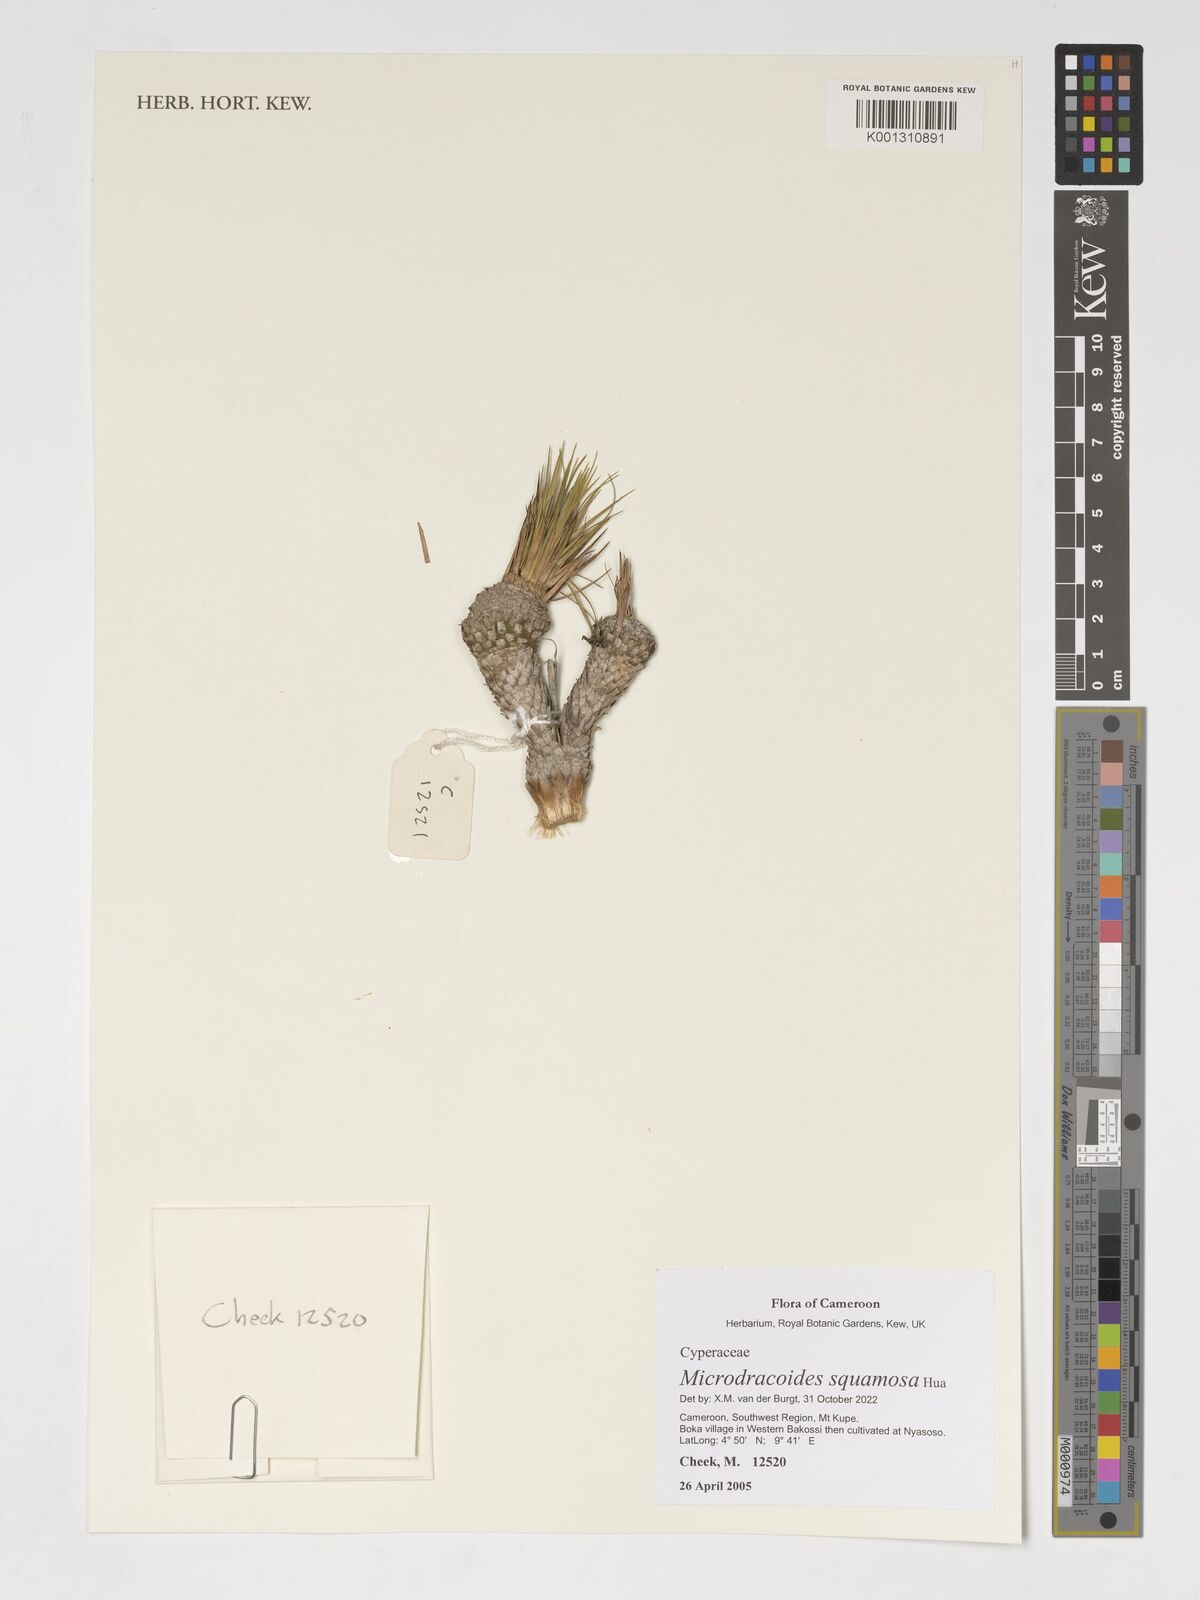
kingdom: Plantae
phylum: Tracheophyta
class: Liliopsida
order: Poales
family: Cyperaceae
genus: Microdracoides
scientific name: Microdracoides squamosa
